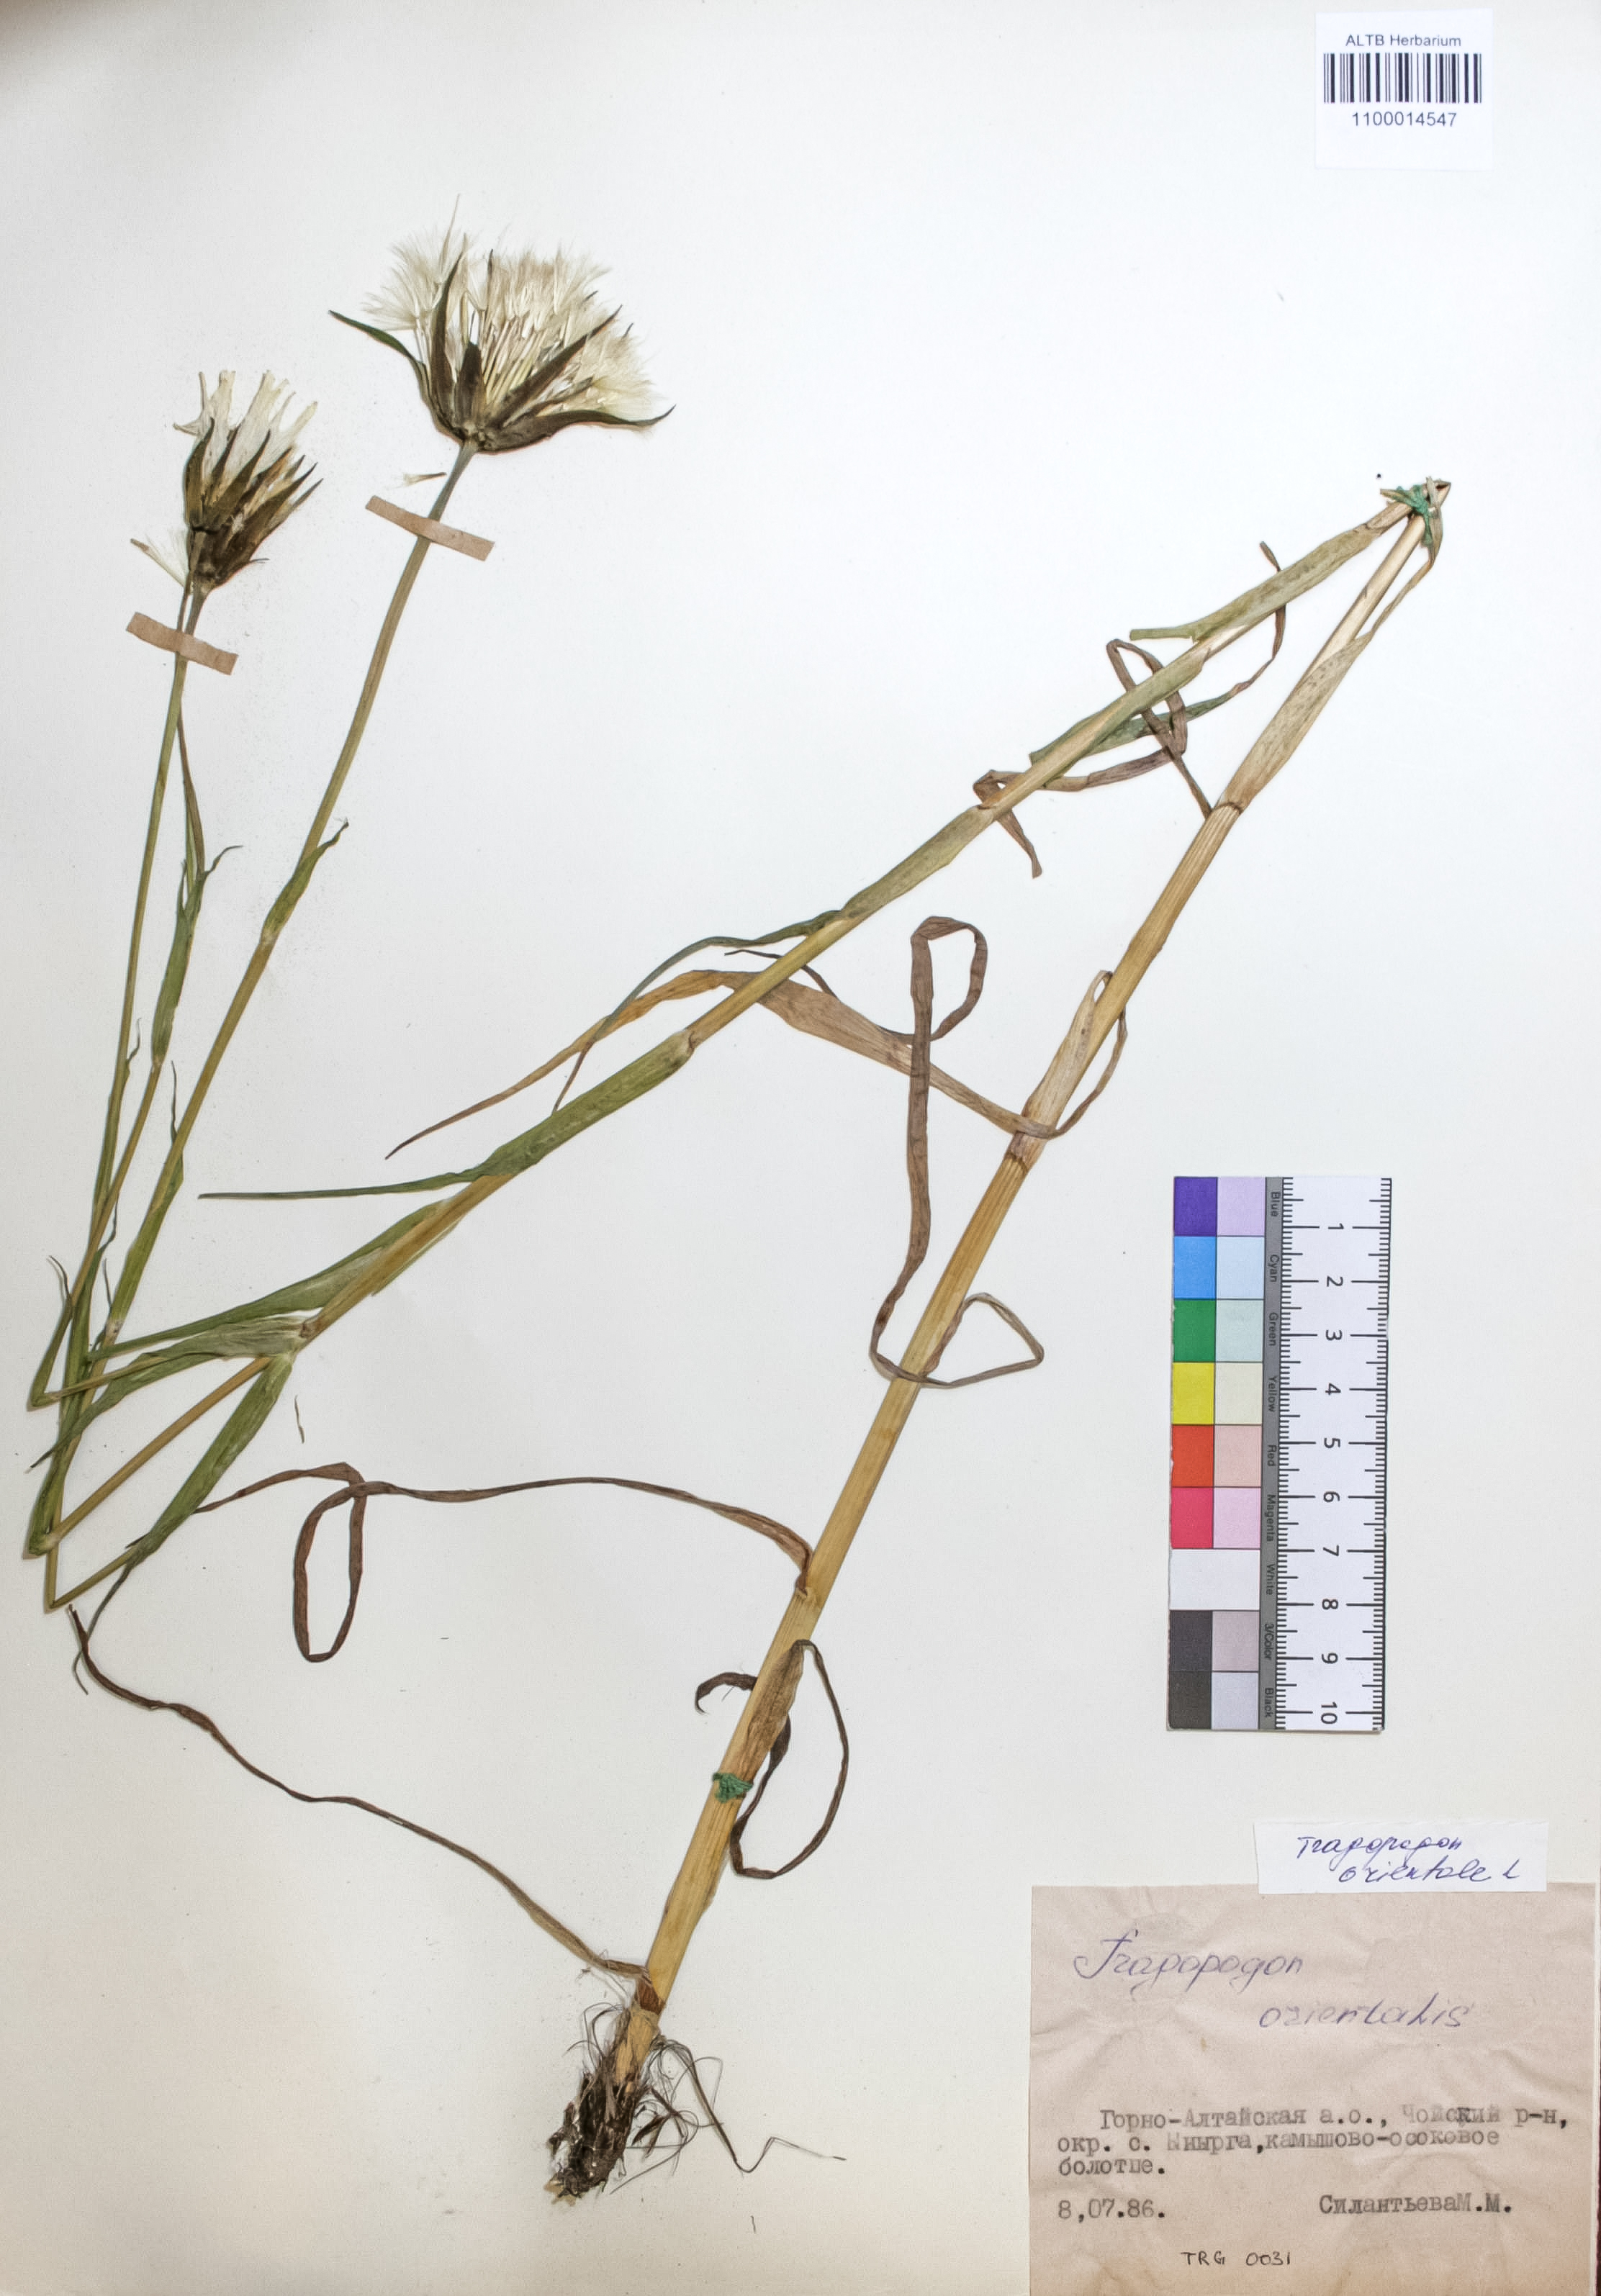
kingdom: Plantae
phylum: Tracheophyta
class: Magnoliopsida
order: Asterales
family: Asteraceae
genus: Tragopogon
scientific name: Tragopogon orientalis
